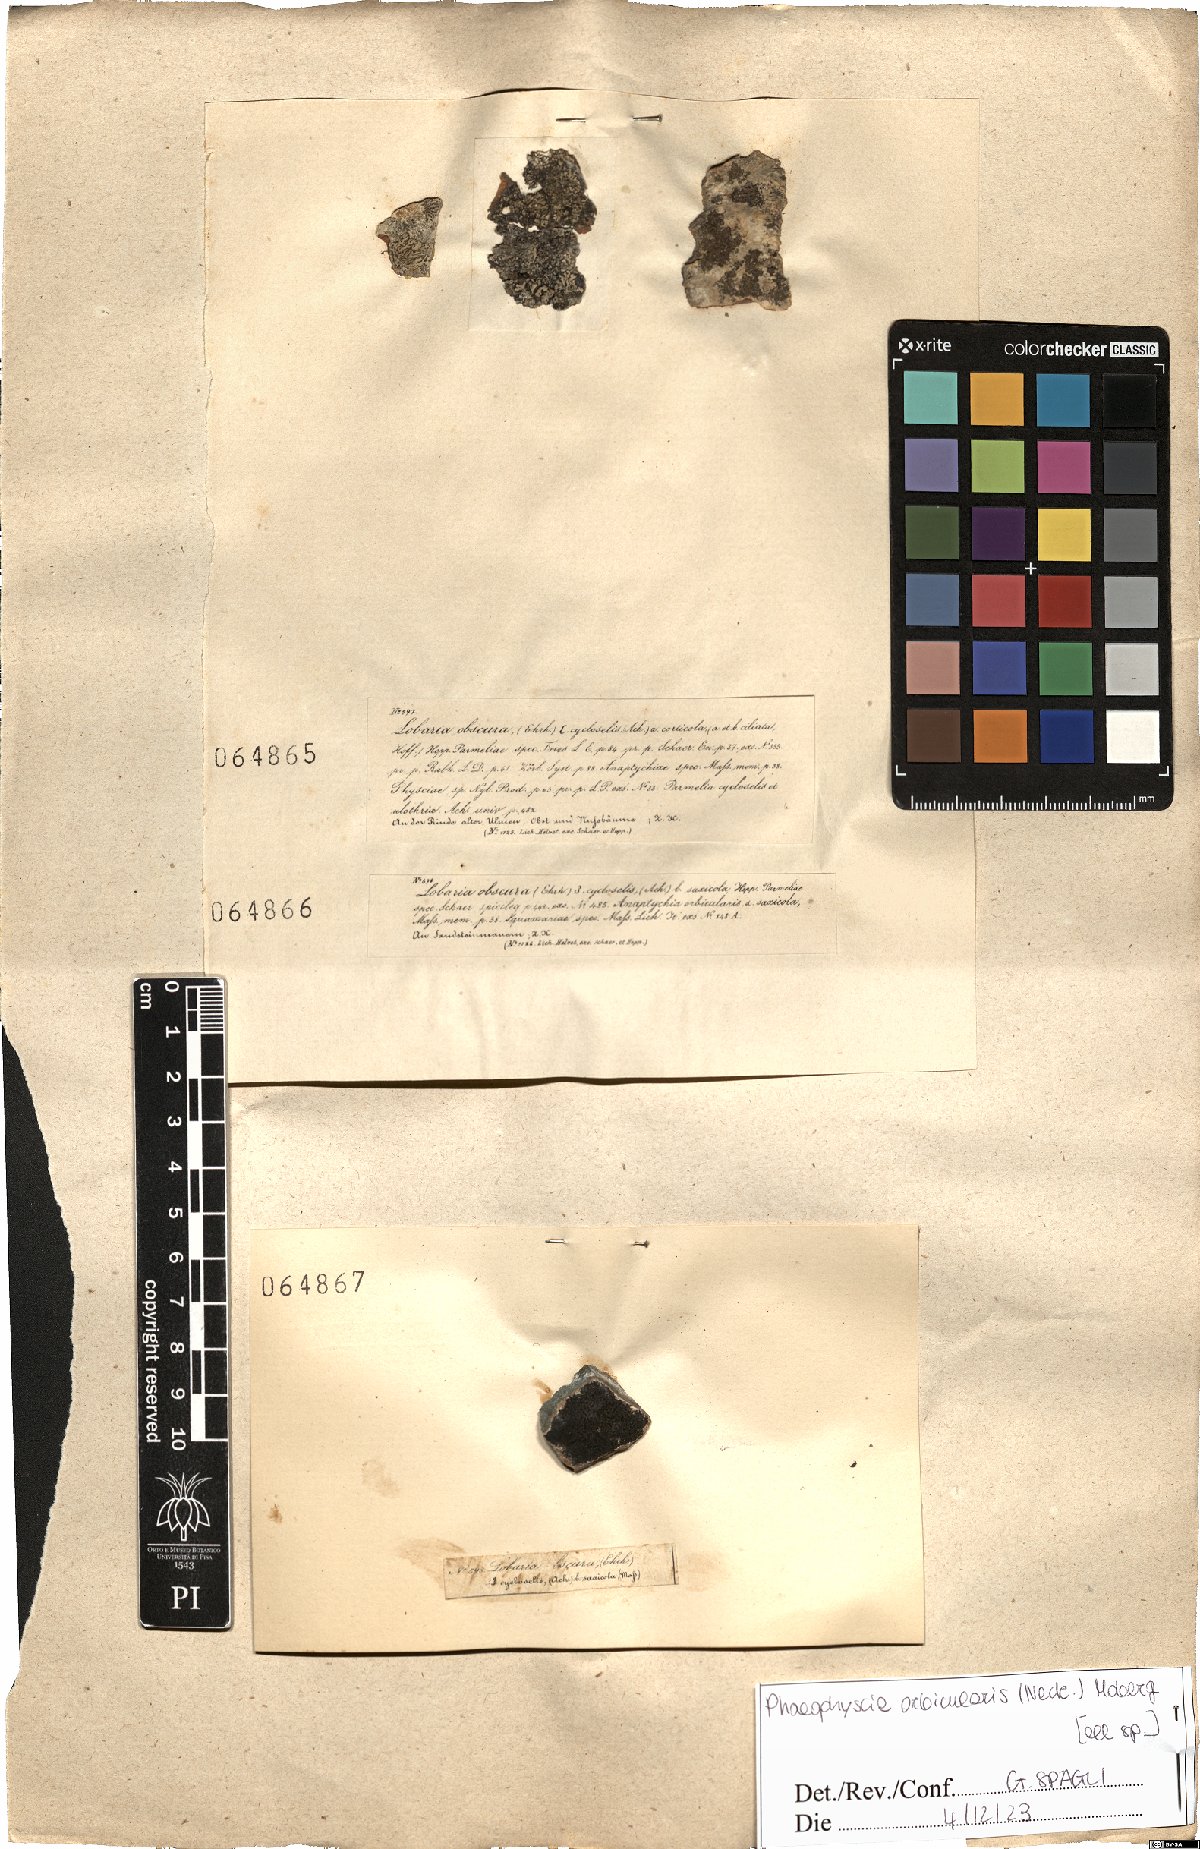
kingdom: Fungi
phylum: Ascomycota
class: Lecanoromycetes
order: Caliciales
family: Physciaceae
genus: Phaeophyscia
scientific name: Phaeophyscia orbicularis
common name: Mealy shadow lichen
